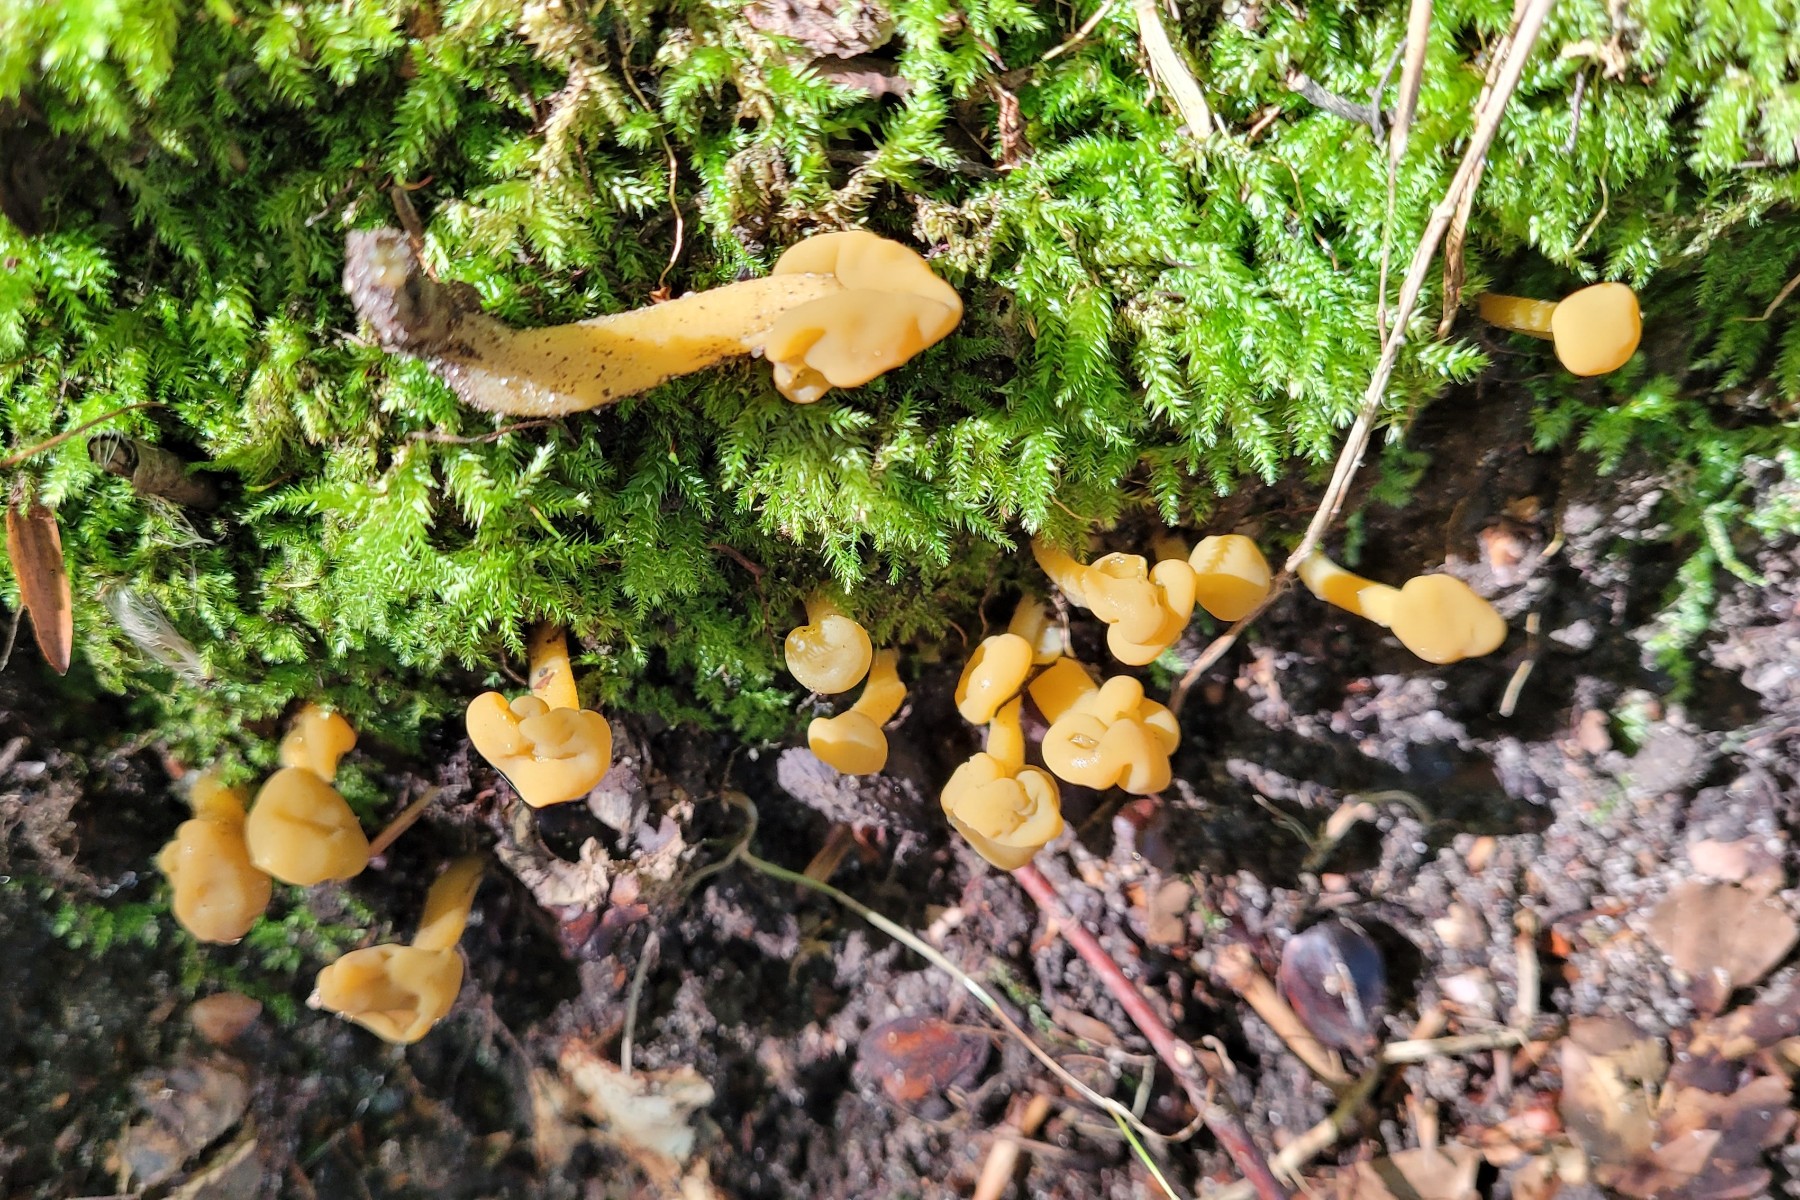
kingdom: Fungi
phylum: Ascomycota
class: Leotiomycetes
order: Leotiales
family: Leotiaceae
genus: Leotia
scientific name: Leotia lubrica
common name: ravsvamp
